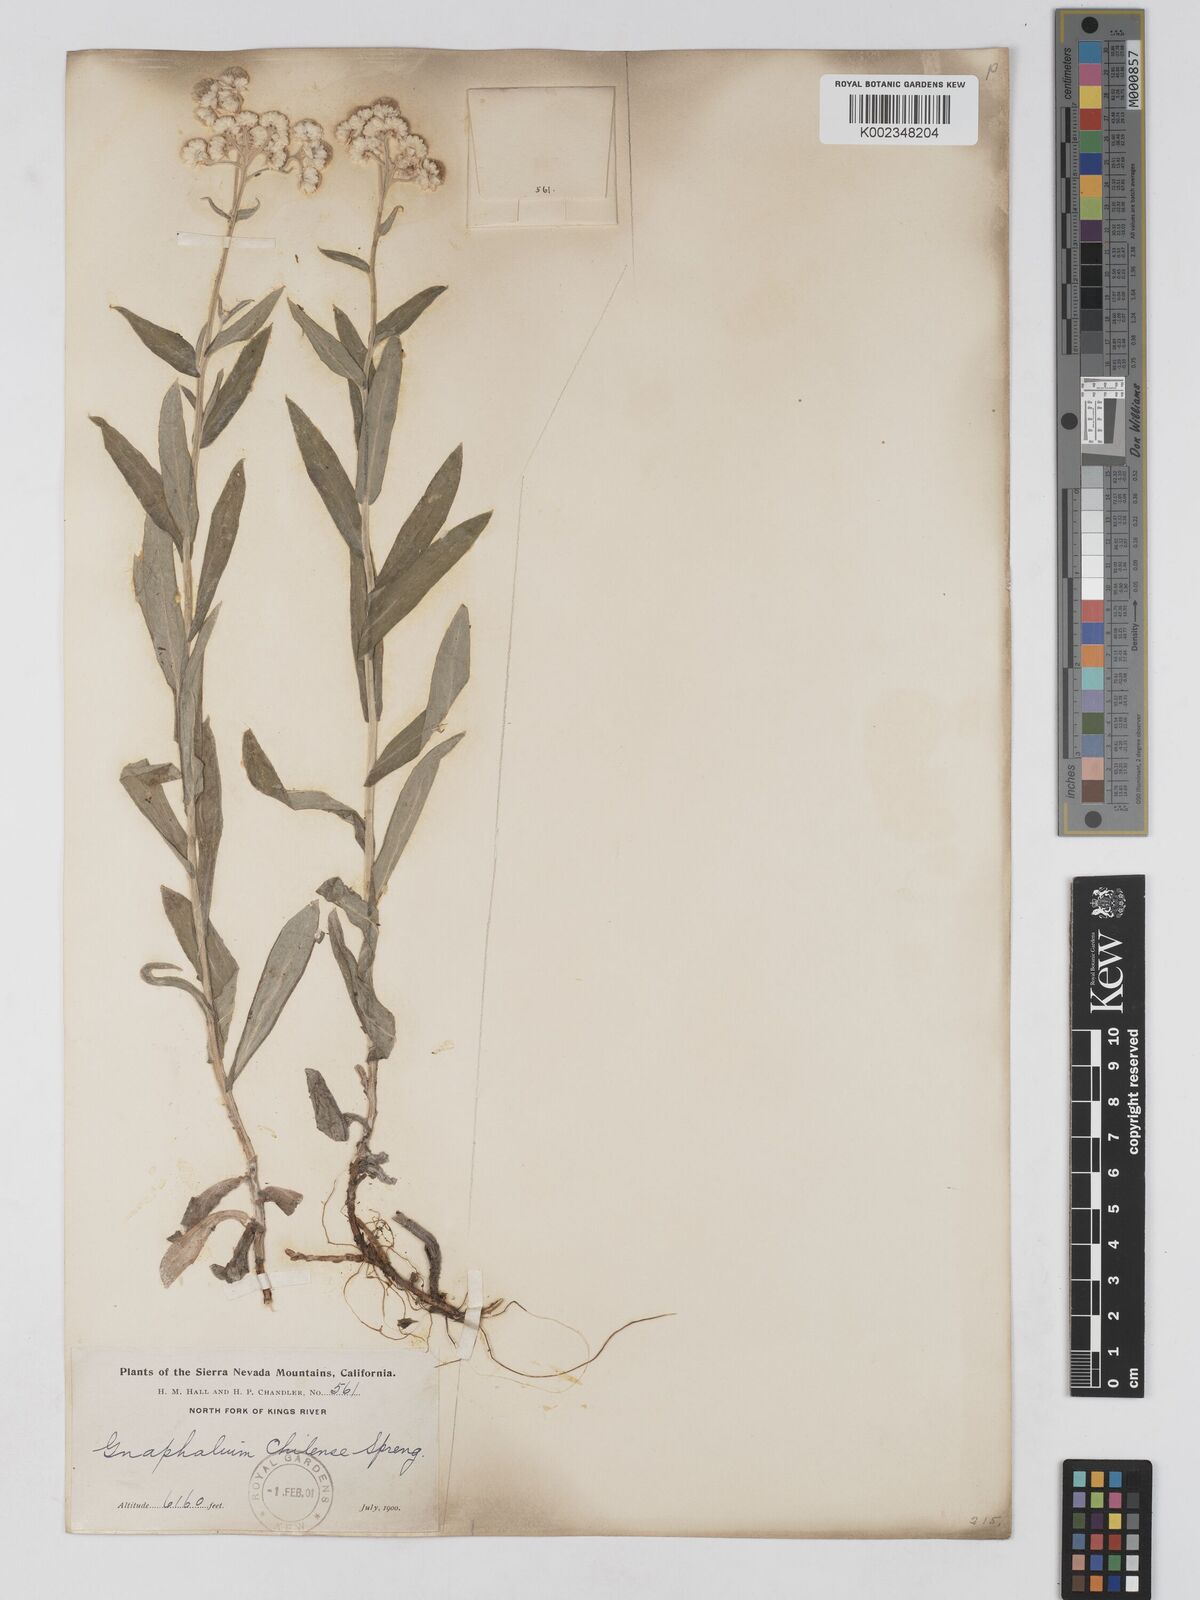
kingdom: Plantae
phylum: Tracheophyta
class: Magnoliopsida
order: Asterales
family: Asteraceae
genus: Anaphalis
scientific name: Anaphalis
